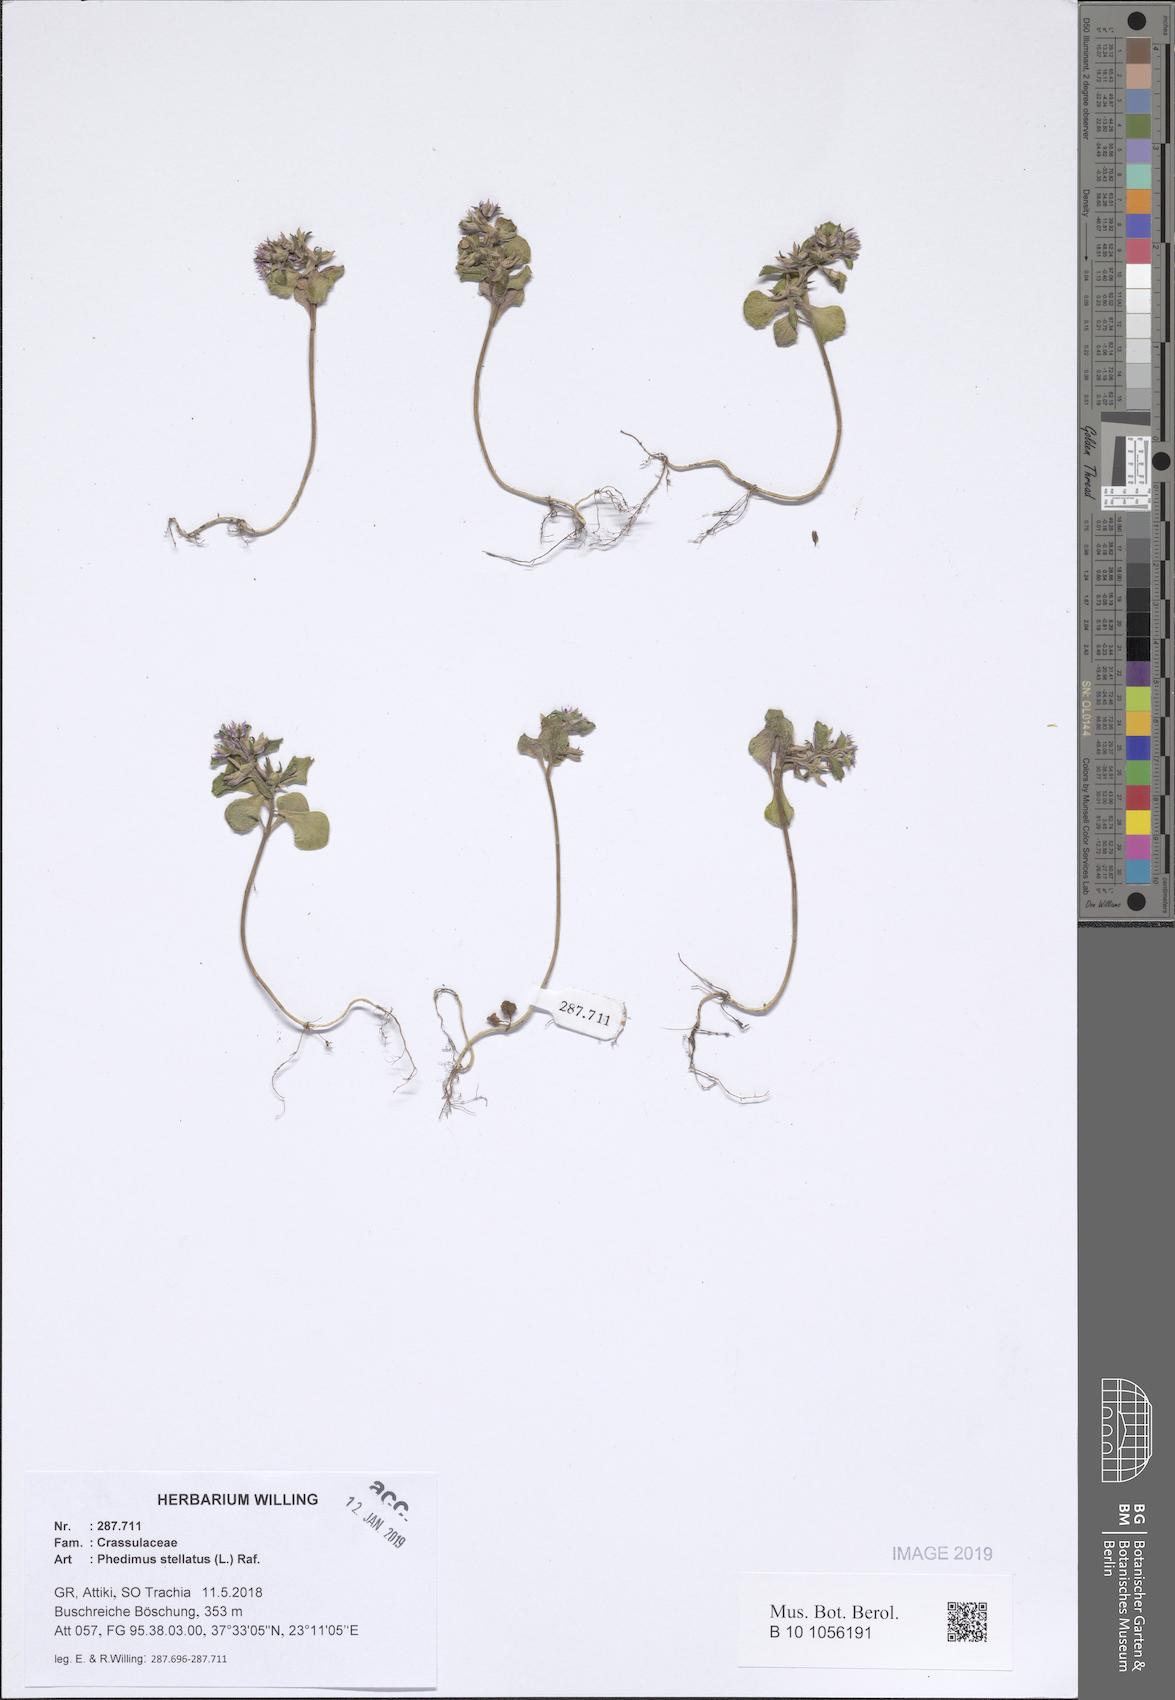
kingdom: Plantae
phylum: Tracheophyta
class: Magnoliopsida
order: Saxifragales
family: Crassulaceae
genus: Phedimus
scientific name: Phedimus stellatus
